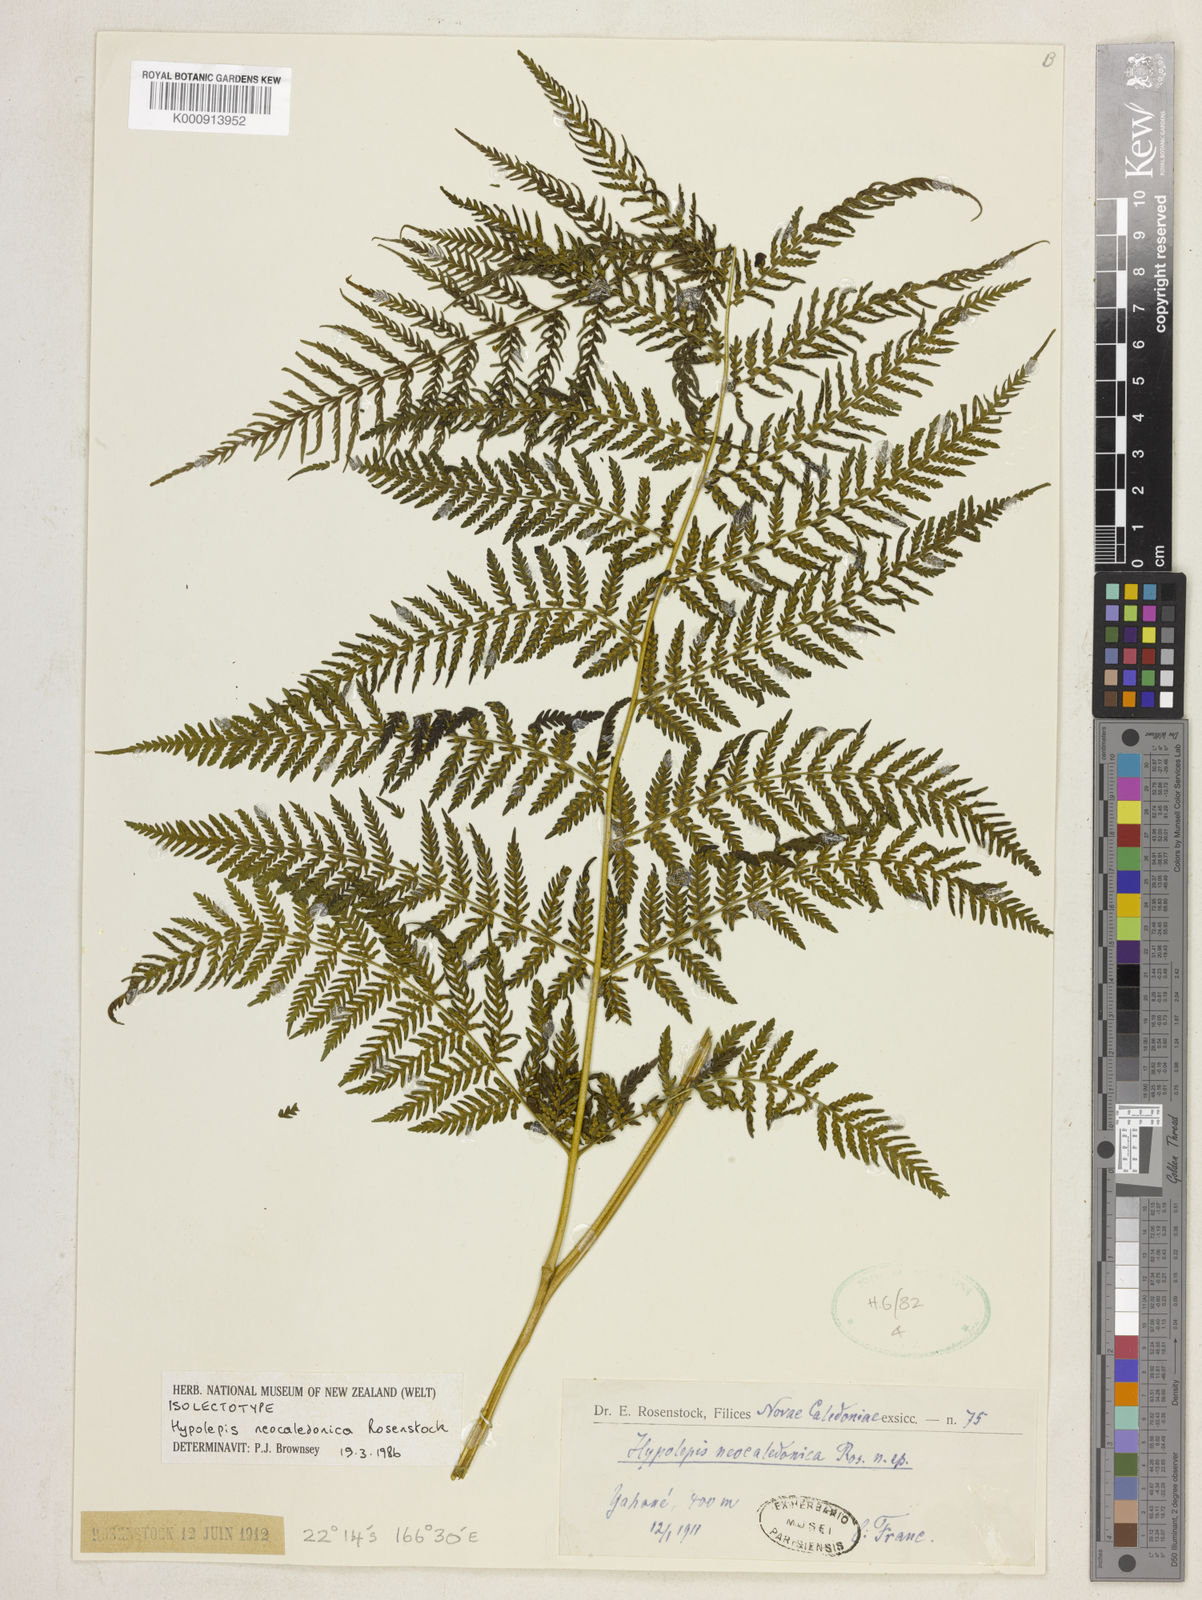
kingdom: Plantae
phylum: Tracheophyta
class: Polypodiopsida
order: Polypodiales
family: Dennstaedtiaceae
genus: Hypolepis
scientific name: Hypolepis tenuifolia
